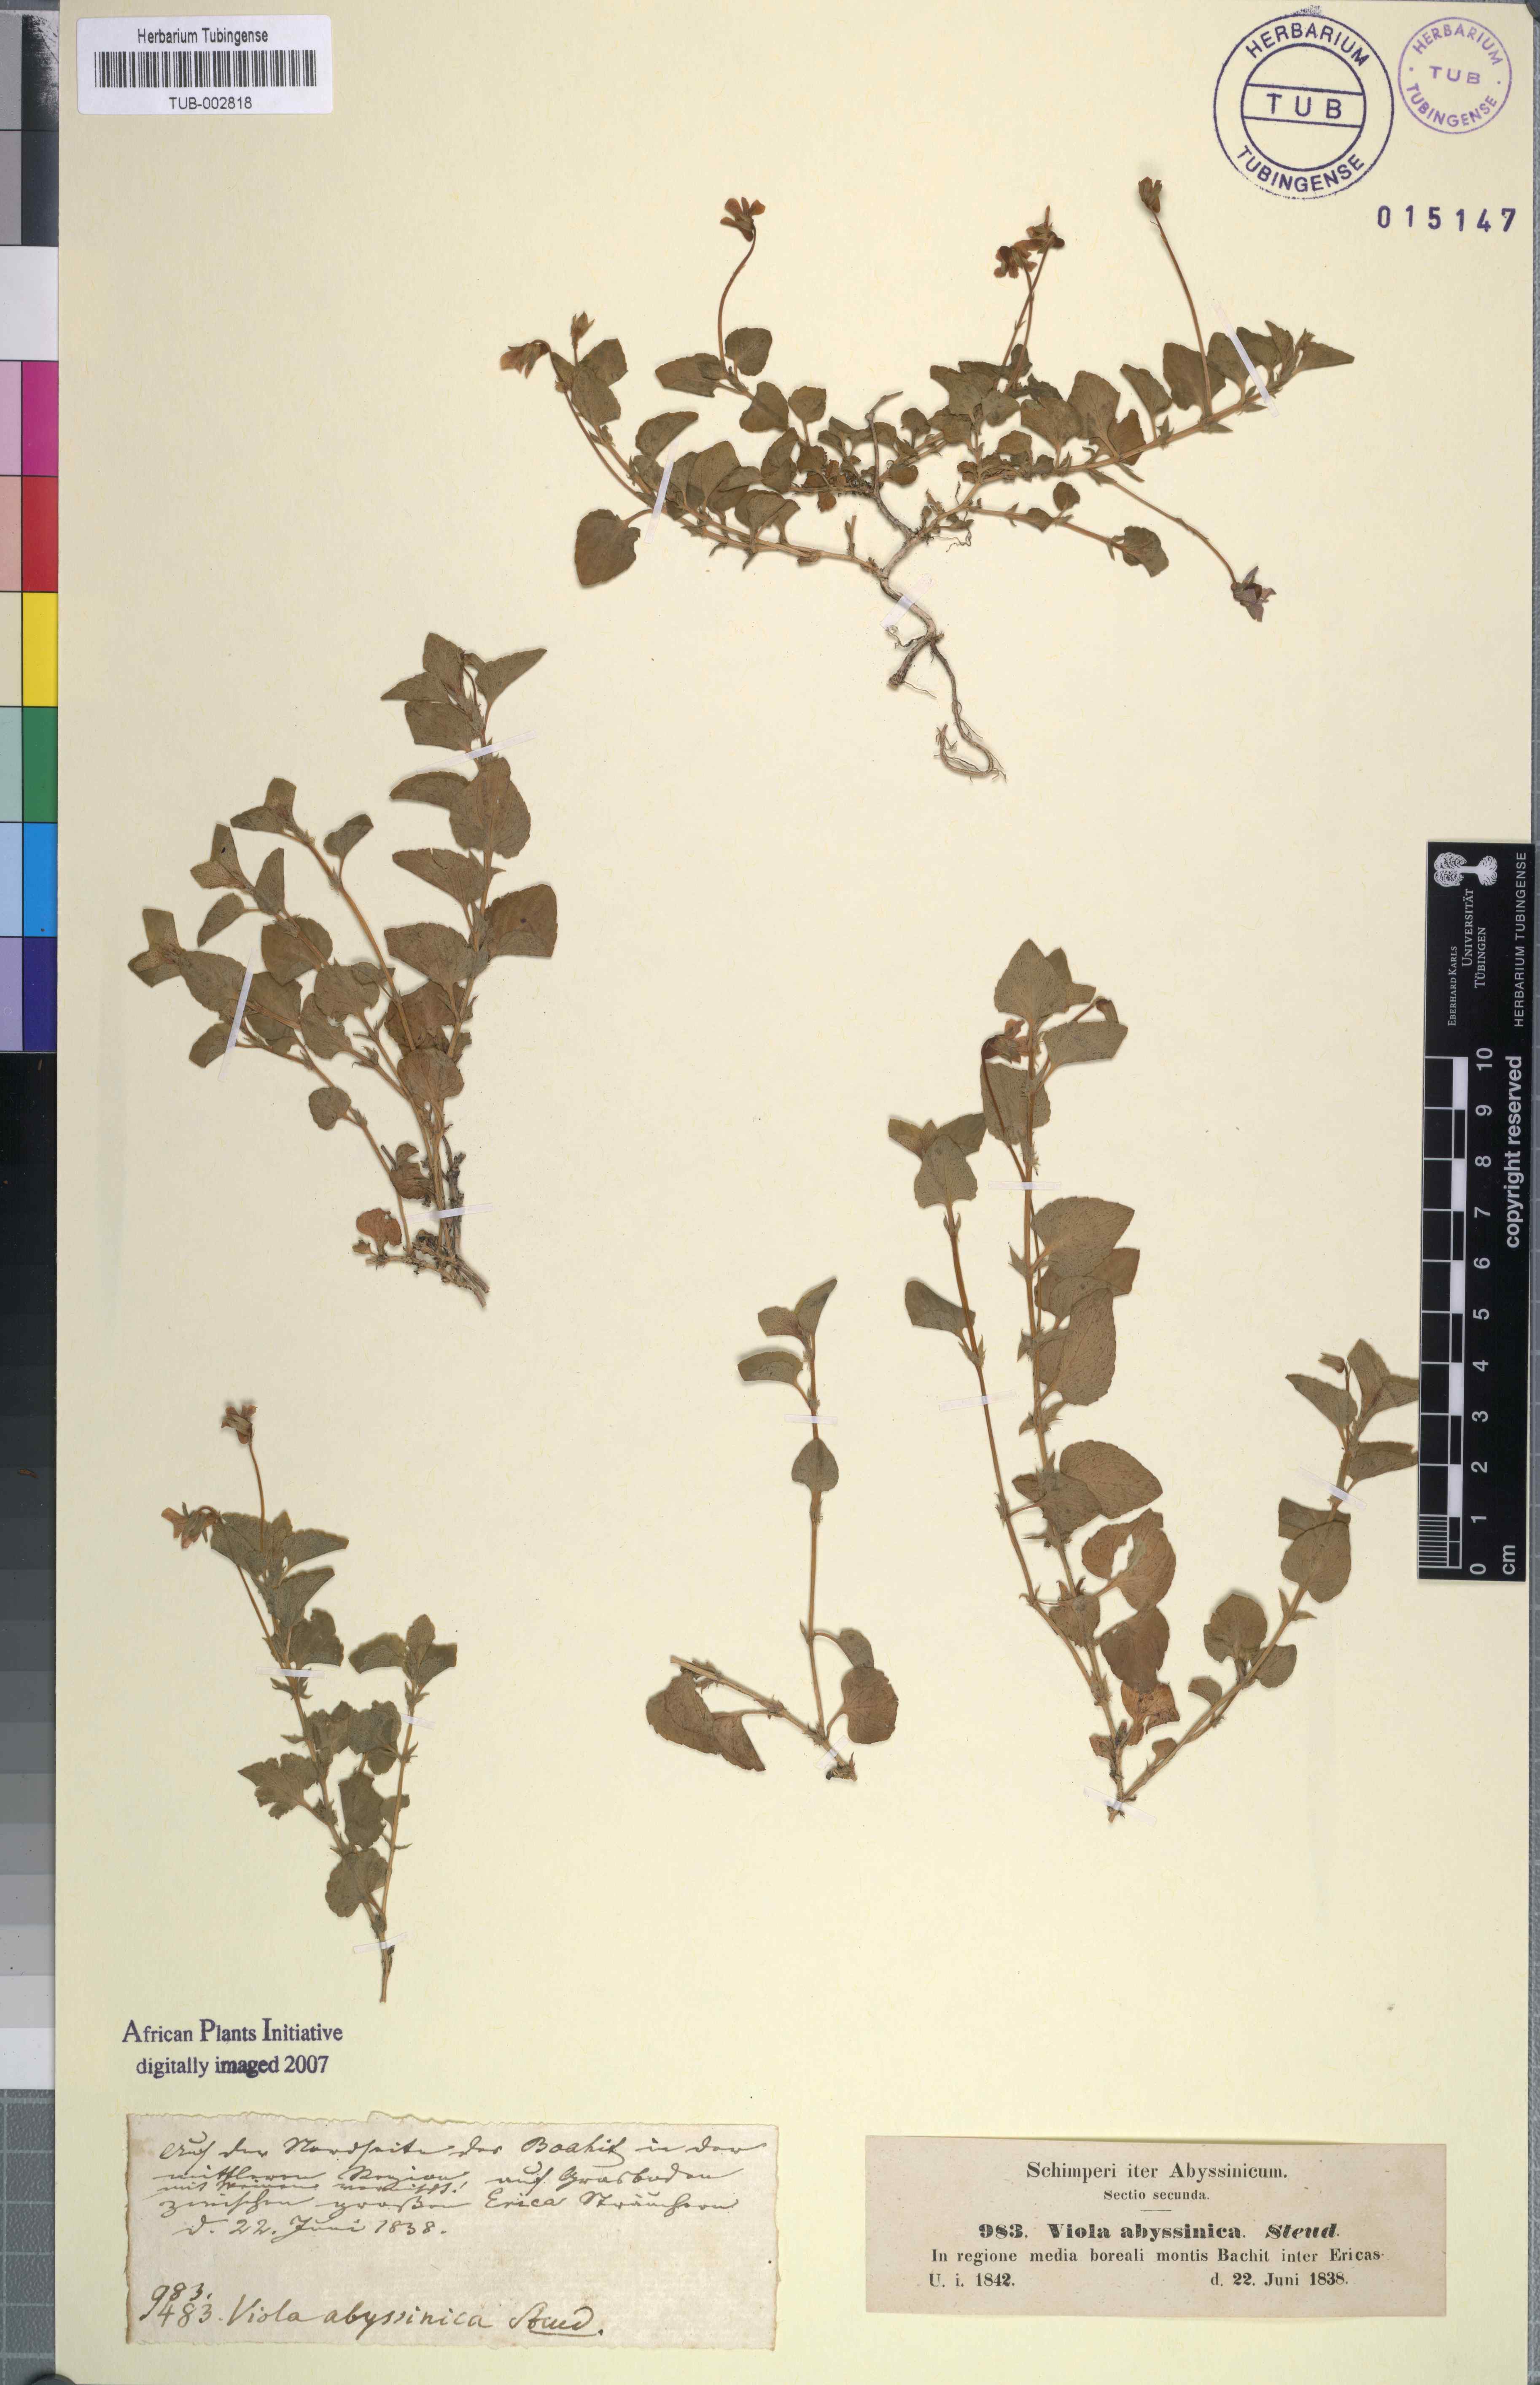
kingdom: Plantae
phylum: Tracheophyta
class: Magnoliopsida
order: Malpighiales
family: Violaceae
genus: Viola
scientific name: Viola abyssinica
